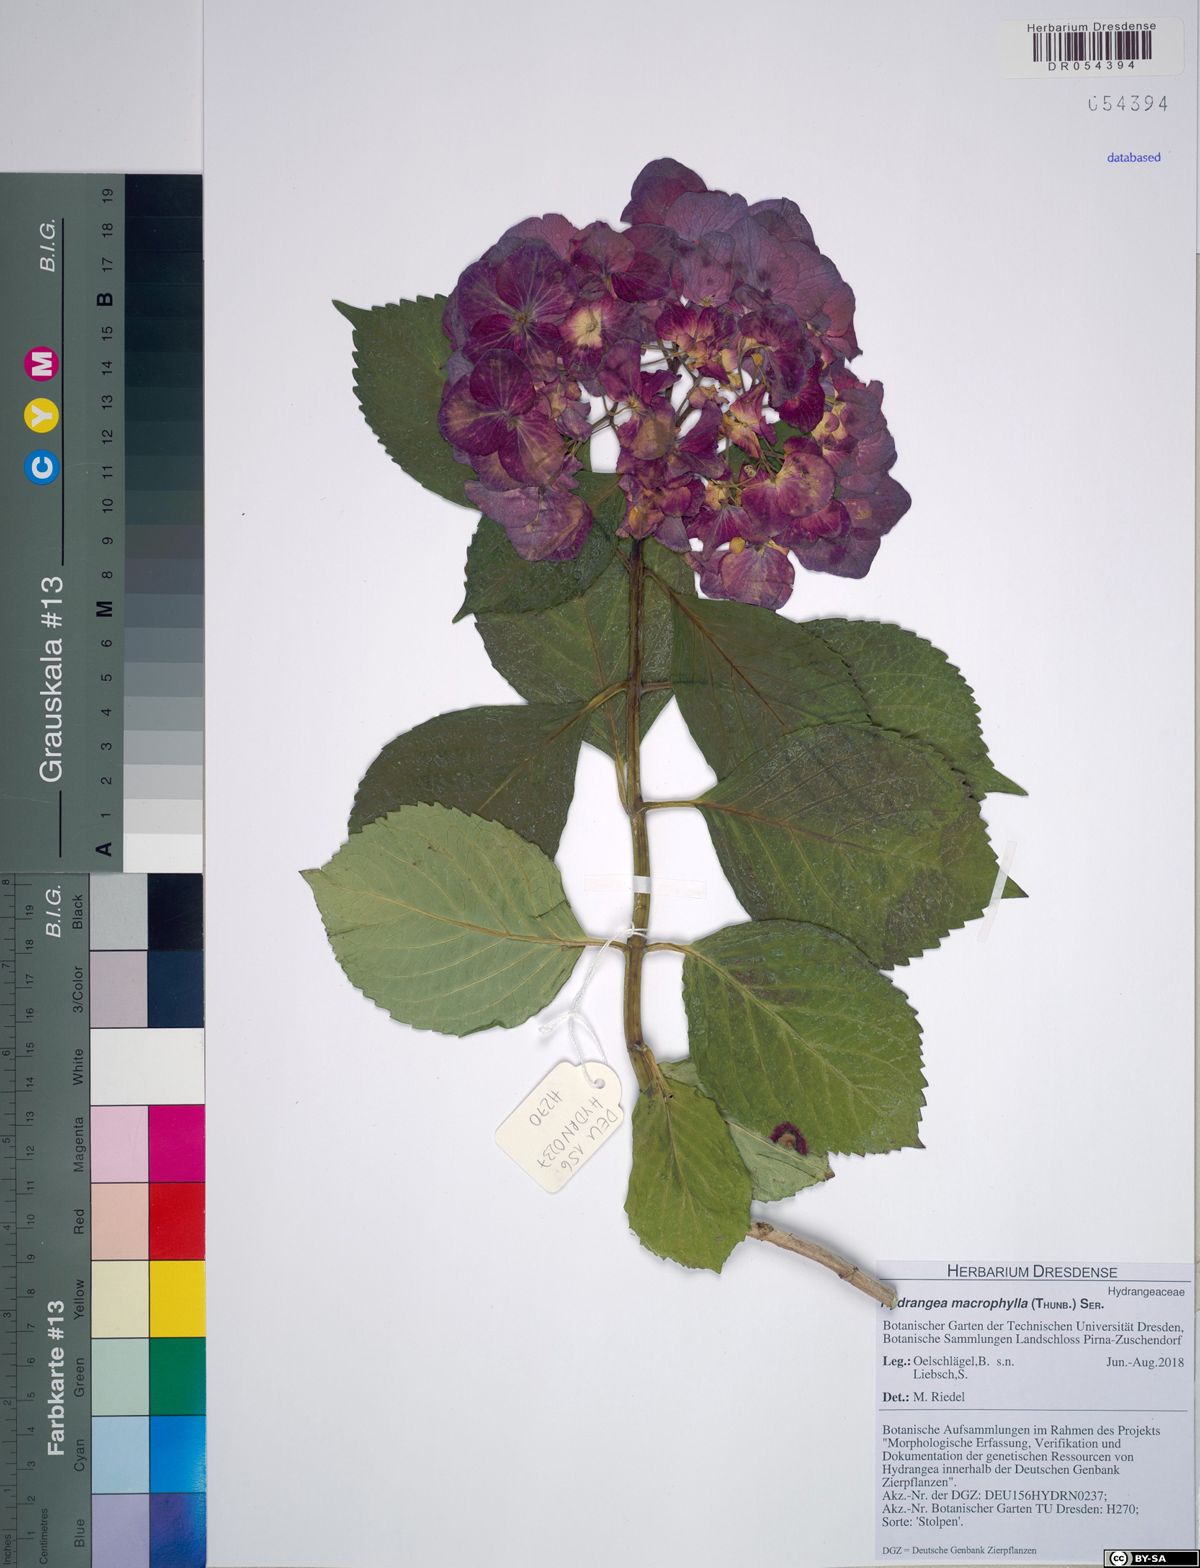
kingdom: Plantae
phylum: Tracheophyta
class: Magnoliopsida
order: Cornales
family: Hydrangeaceae
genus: Hydrangea
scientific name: Hydrangea macrophylla
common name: Hydrangea
